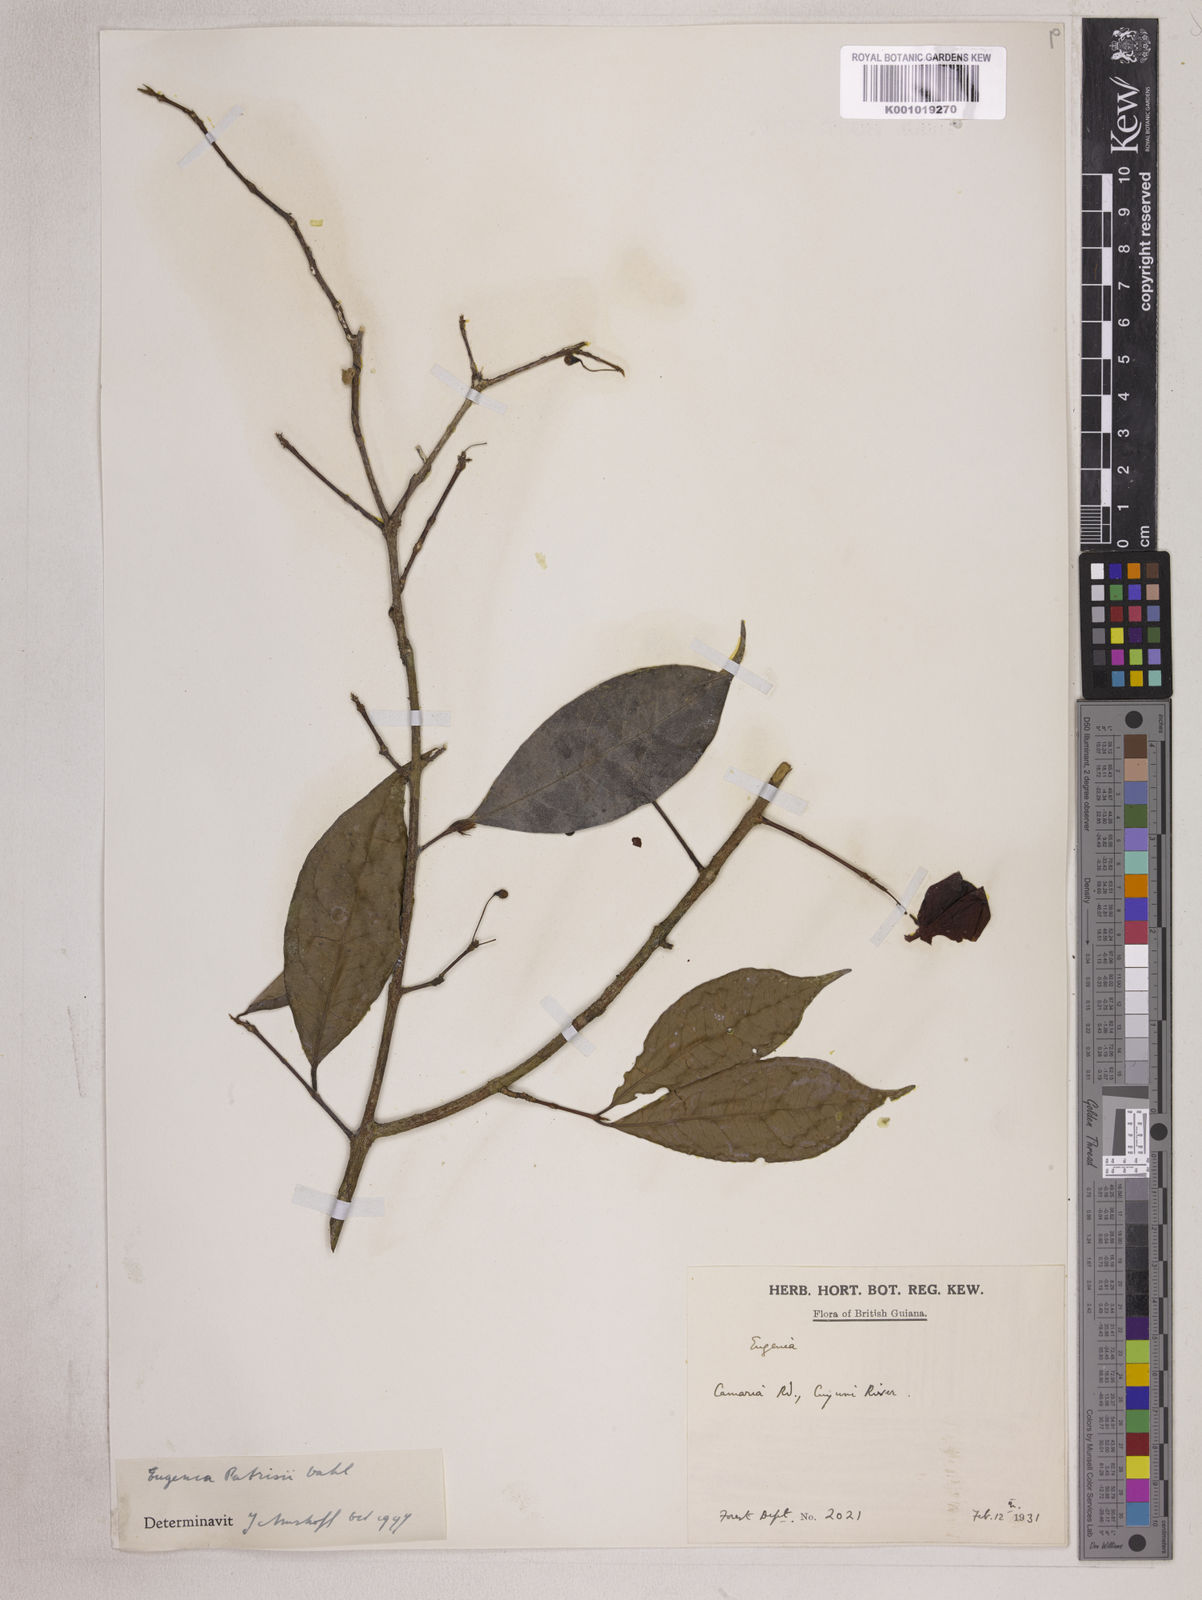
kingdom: Plantae
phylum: Tracheophyta
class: Magnoliopsida
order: Myrtales
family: Myrtaceae
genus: Eugenia
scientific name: Eugenia patrisii
